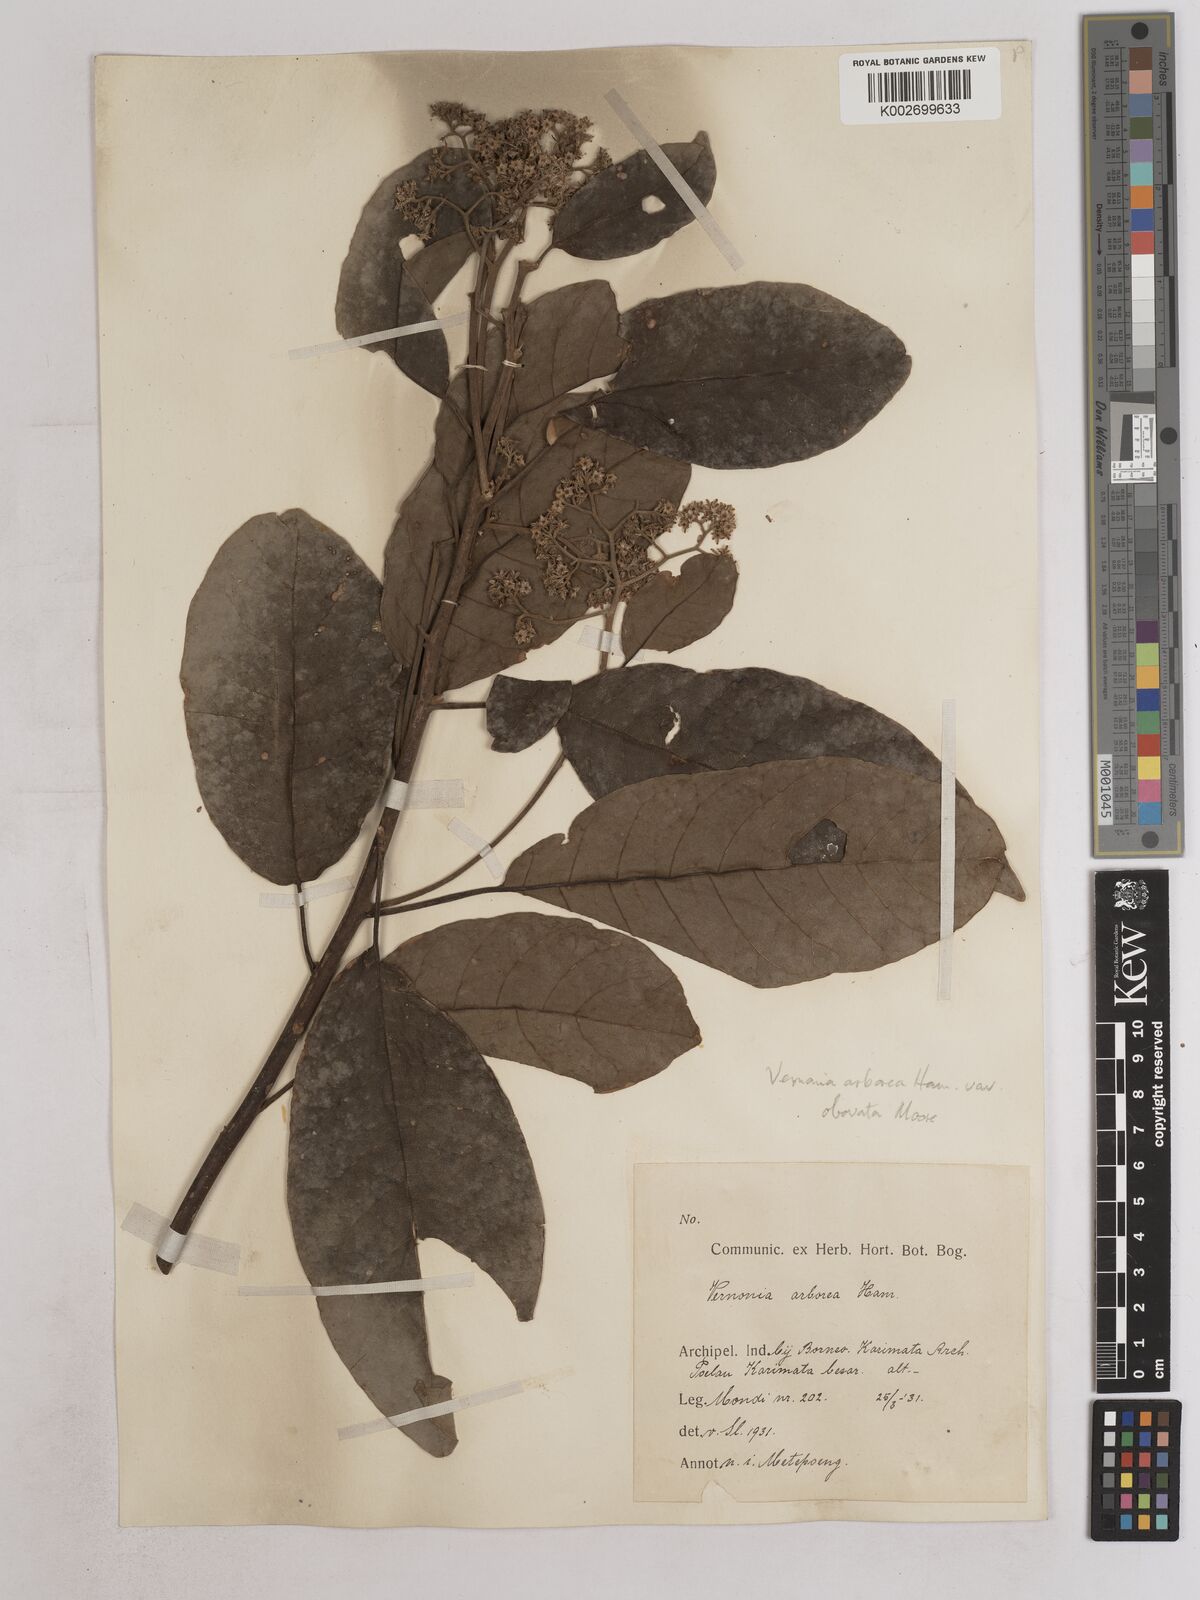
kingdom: Plantae
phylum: Tracheophyta
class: Magnoliopsida
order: Asterales
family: Asteraceae
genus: Strobocalyx
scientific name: Strobocalyx arborea
